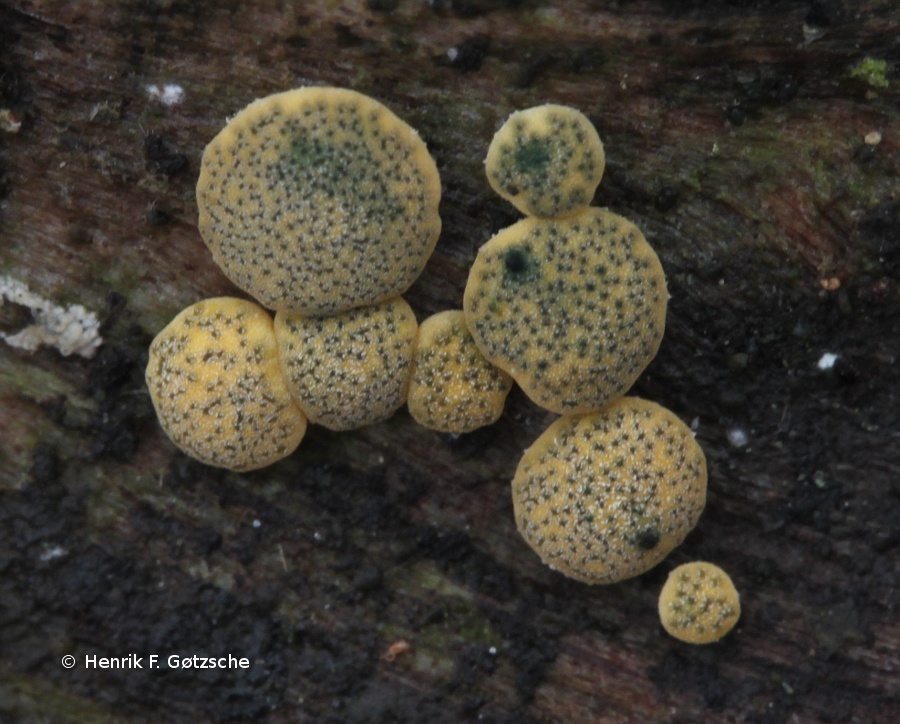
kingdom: Fungi
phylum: Ascomycota
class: Sordariomycetes
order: Hypocreales
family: Hypocreaceae
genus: Trichoderma
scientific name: Trichoderma aureoviride
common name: æggegul kødkerne
